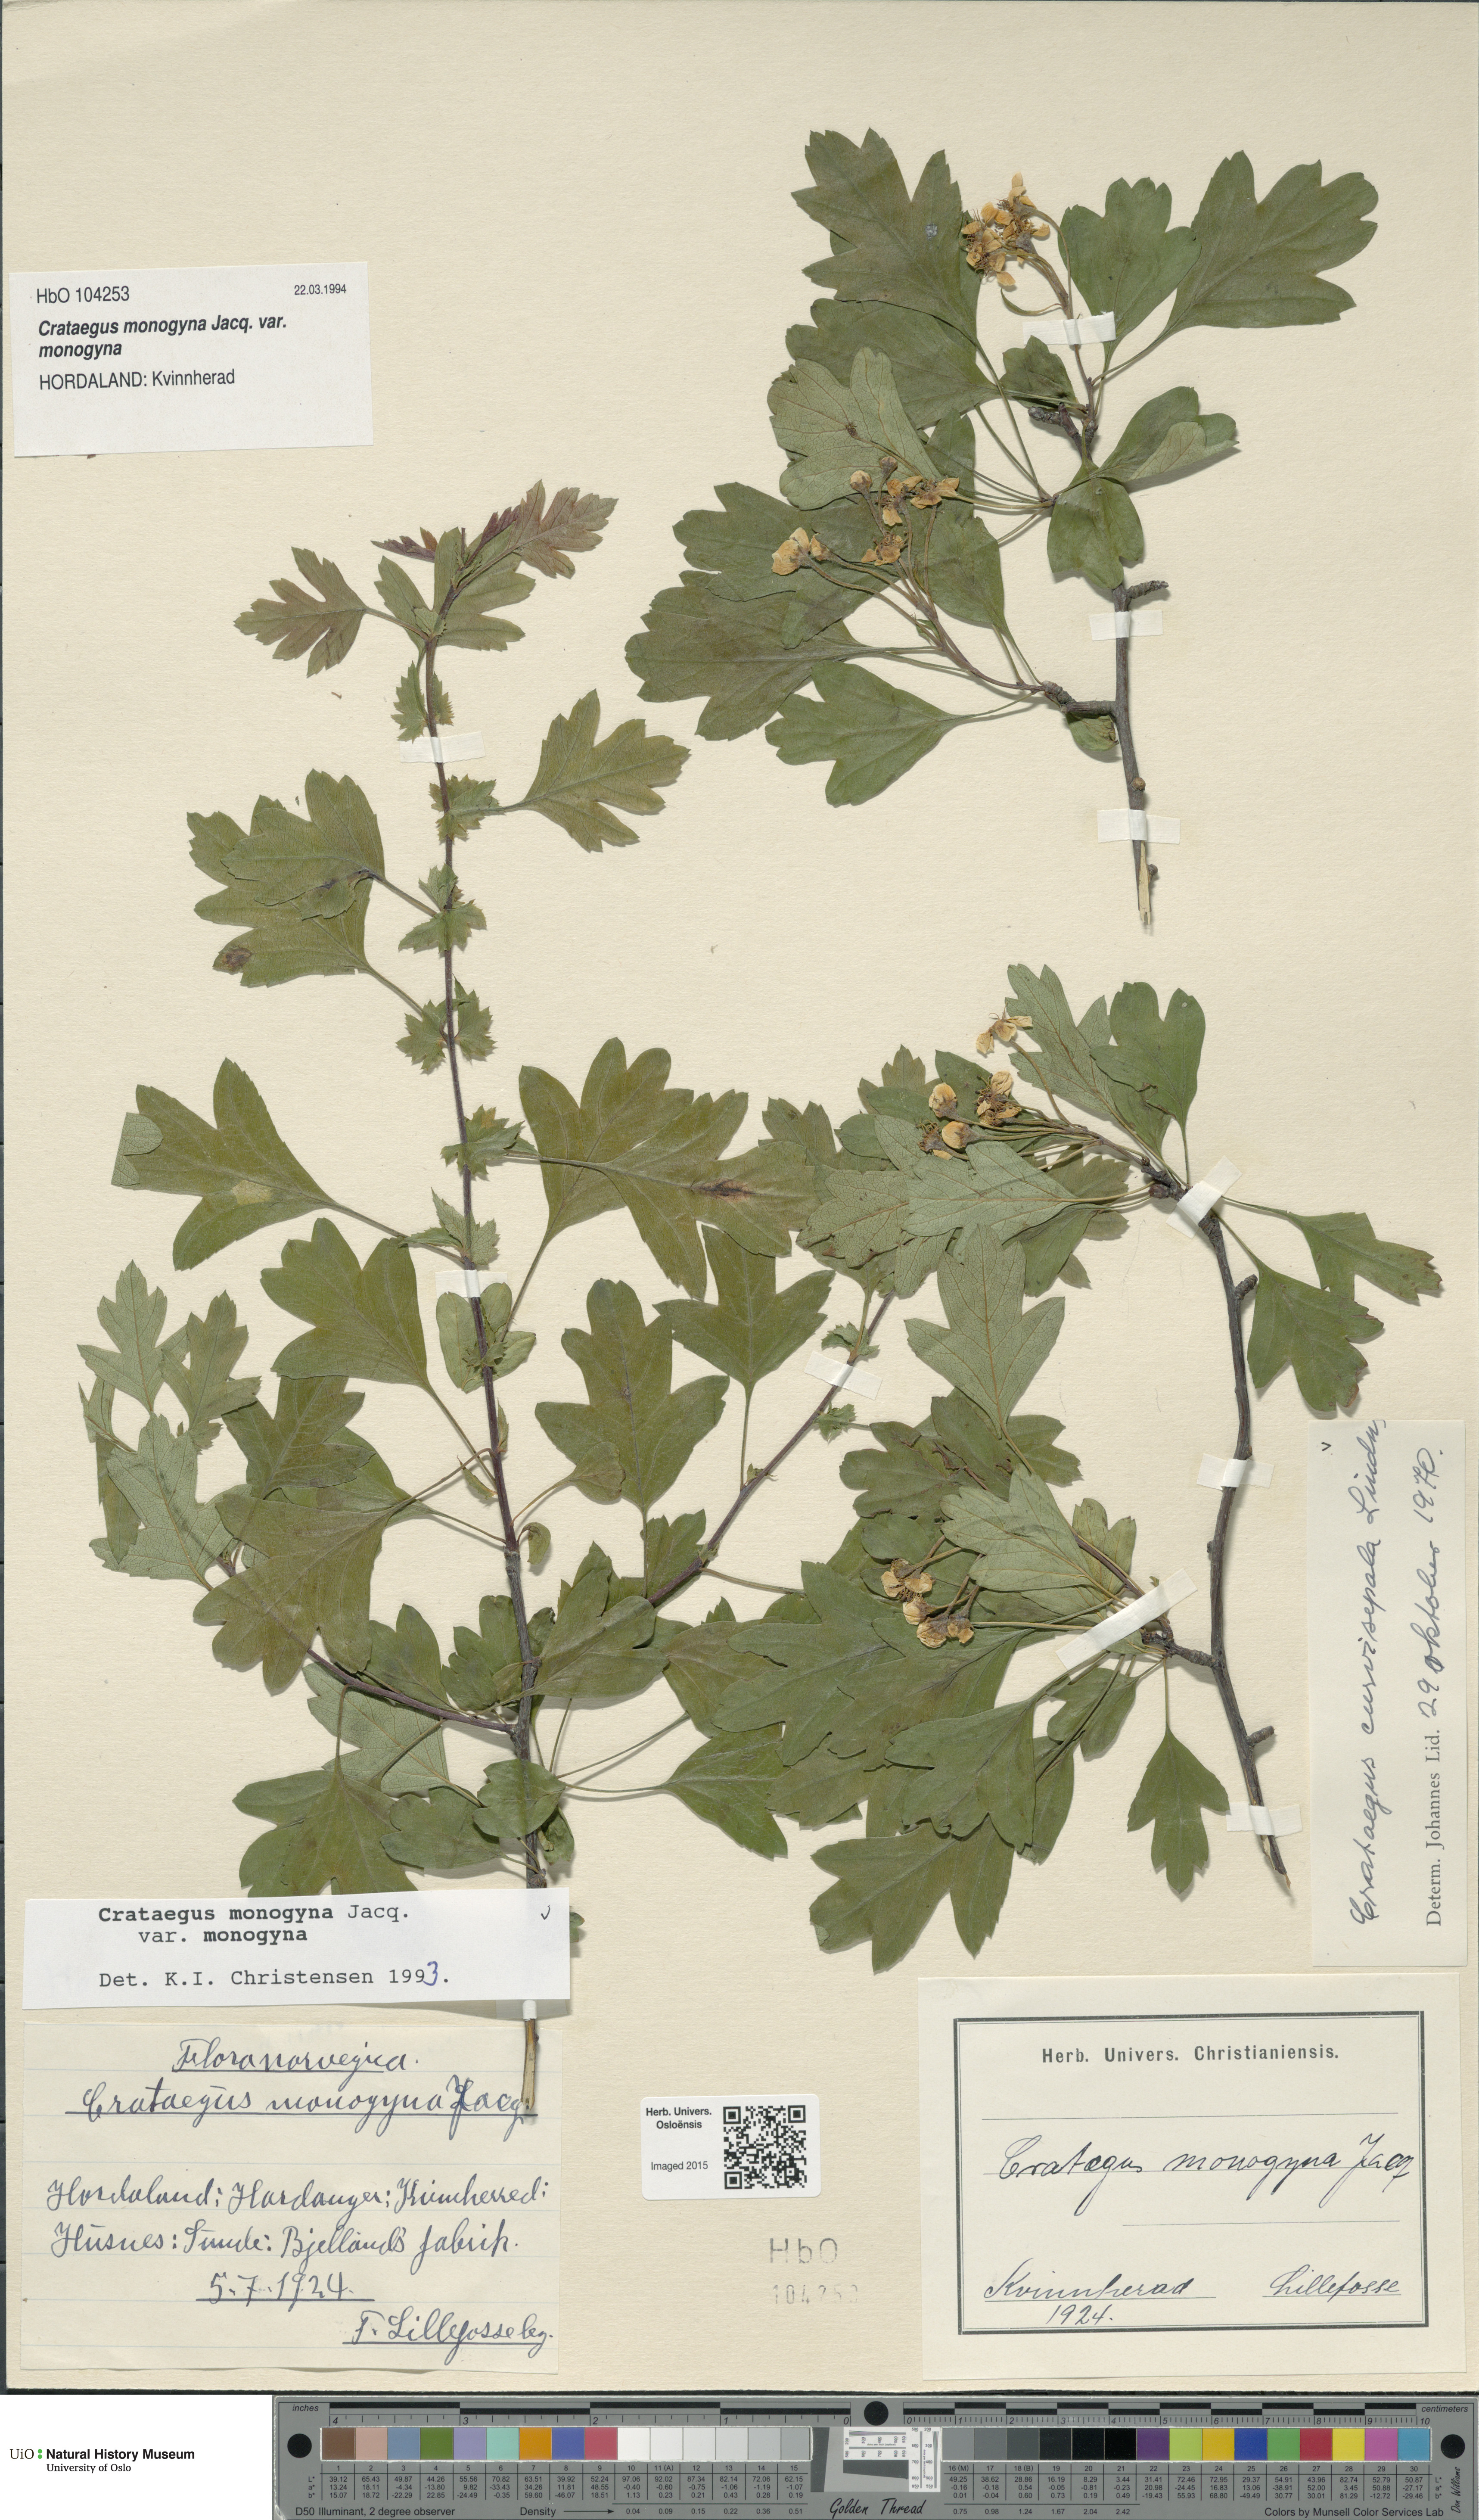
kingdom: Plantae
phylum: Tracheophyta
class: Magnoliopsida
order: Rosales
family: Rosaceae
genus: Crataegus
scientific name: Crataegus monogyna
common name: Hawthorn
